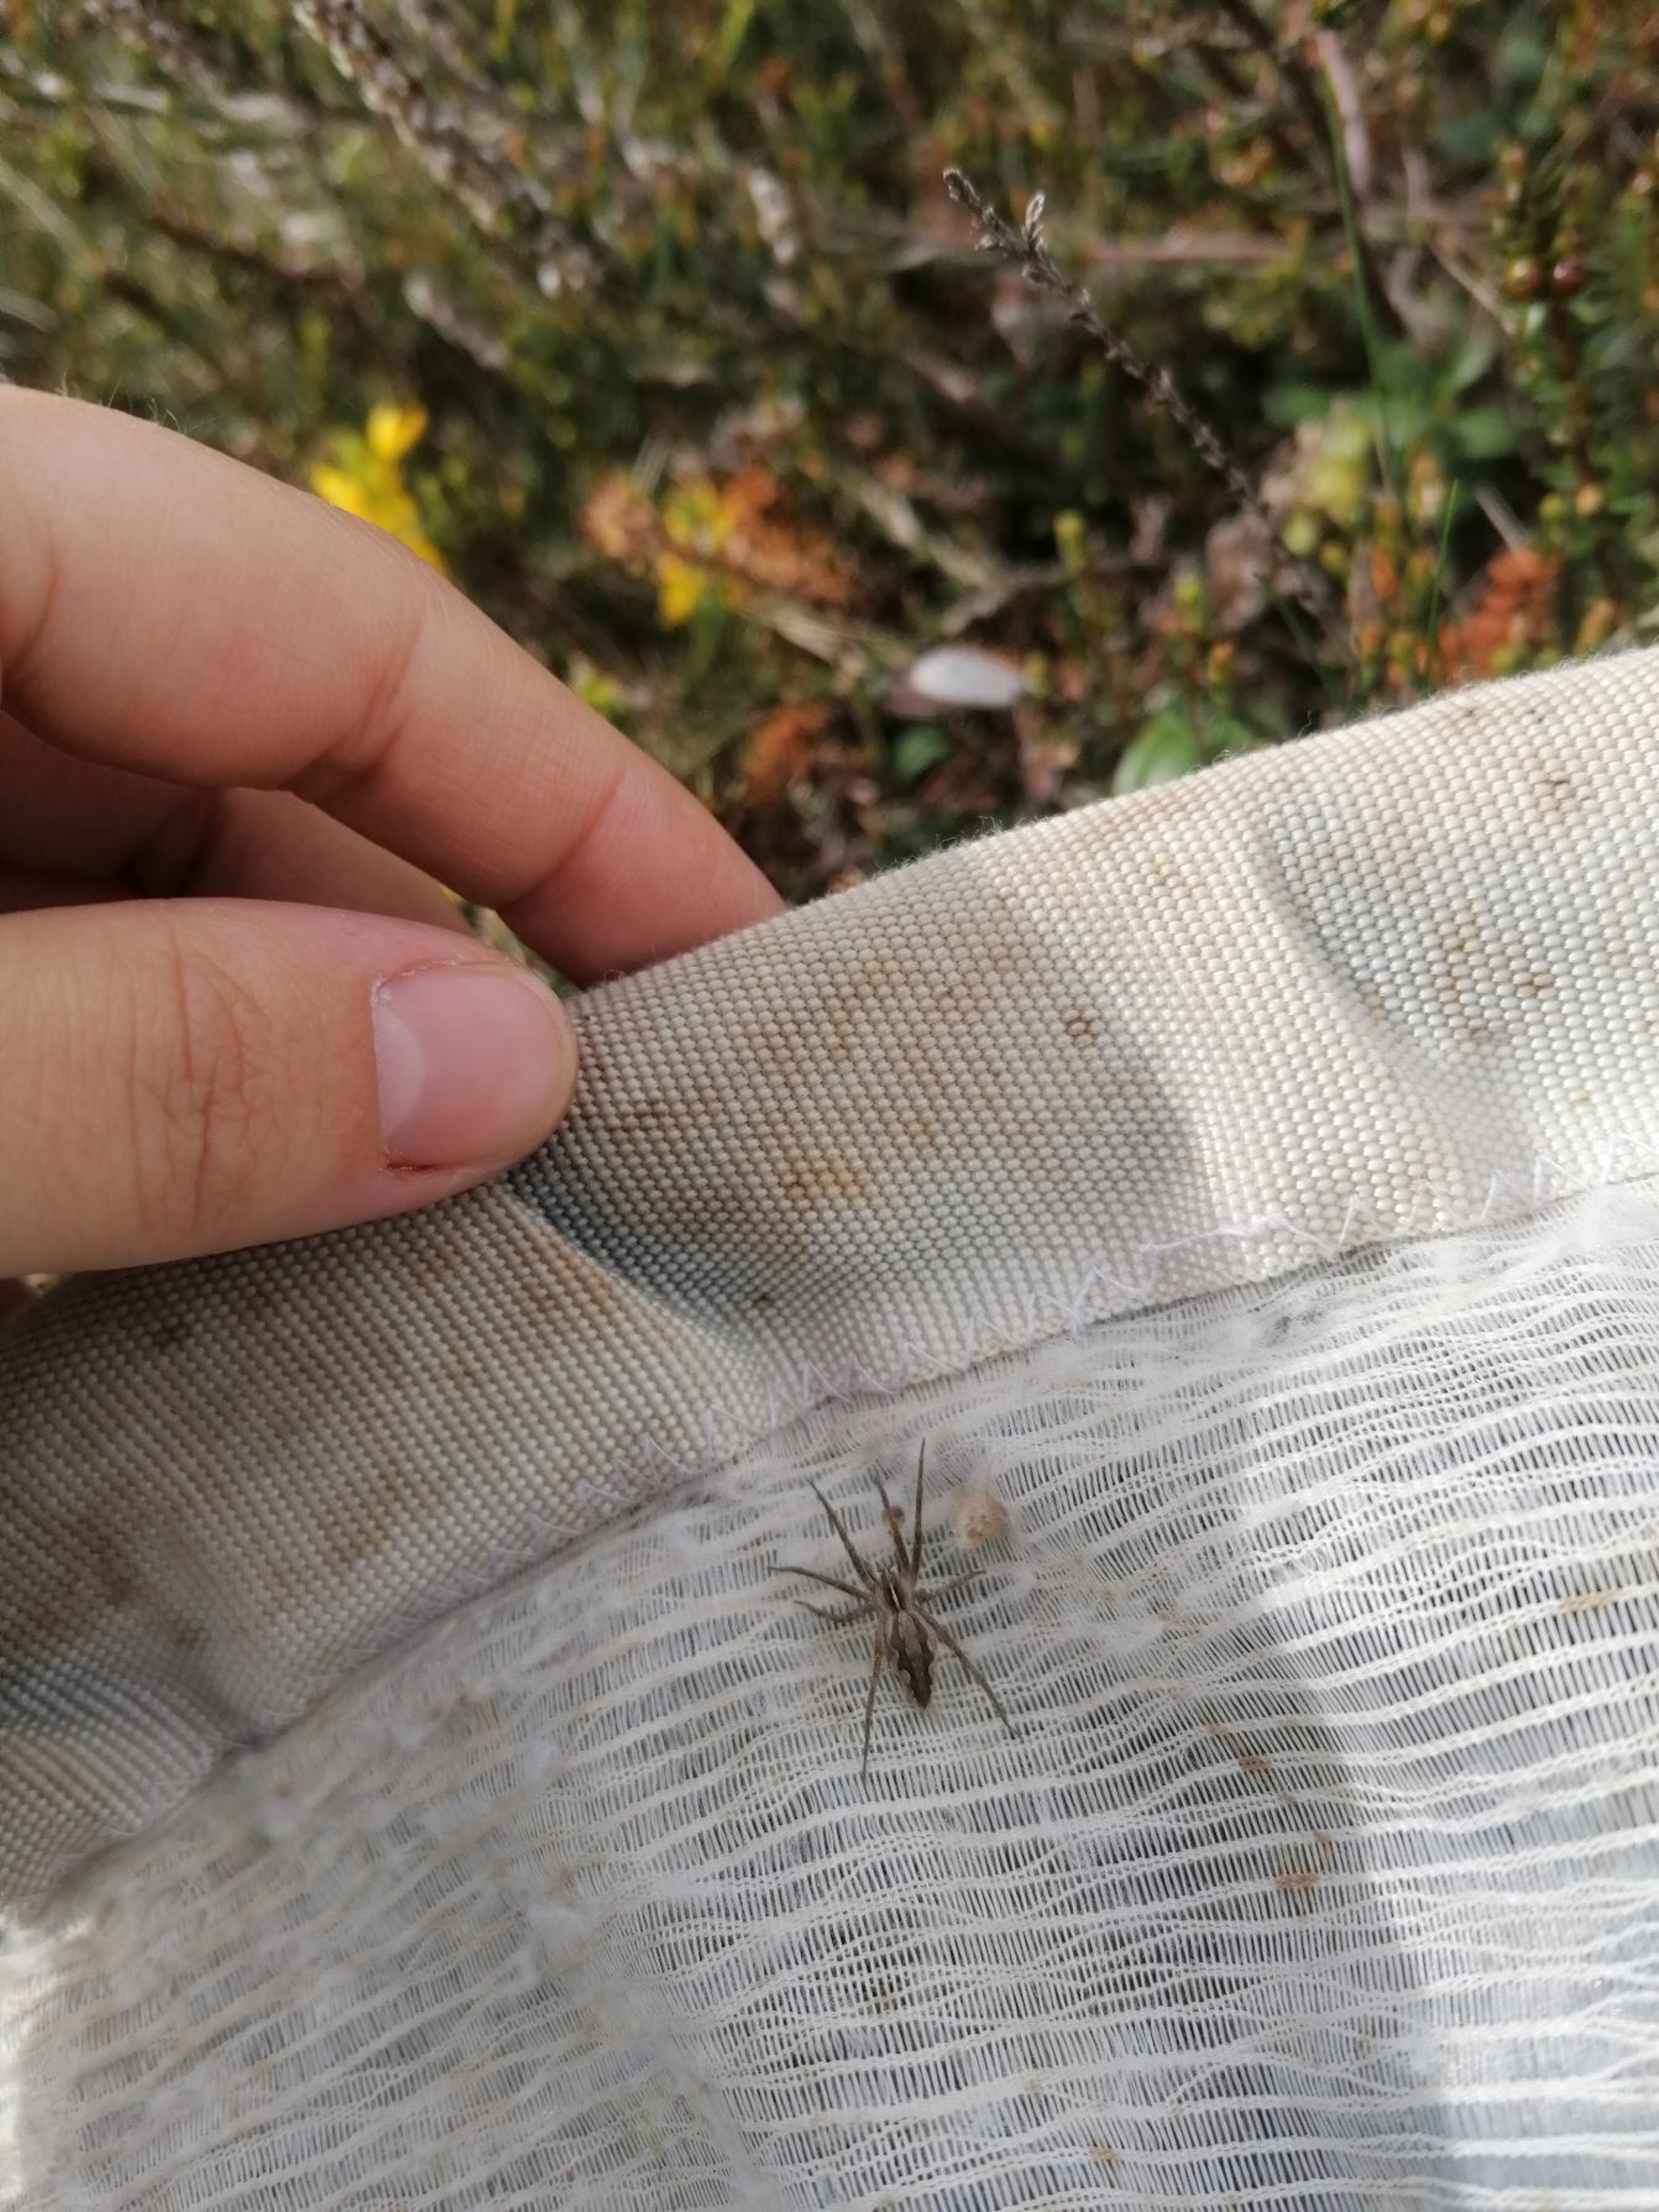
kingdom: Animalia
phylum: Arthropoda
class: Arachnida
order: Araneae
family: Pisauridae
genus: Pisaura
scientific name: Pisaura mirabilis
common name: Almindelig rovedderkop
